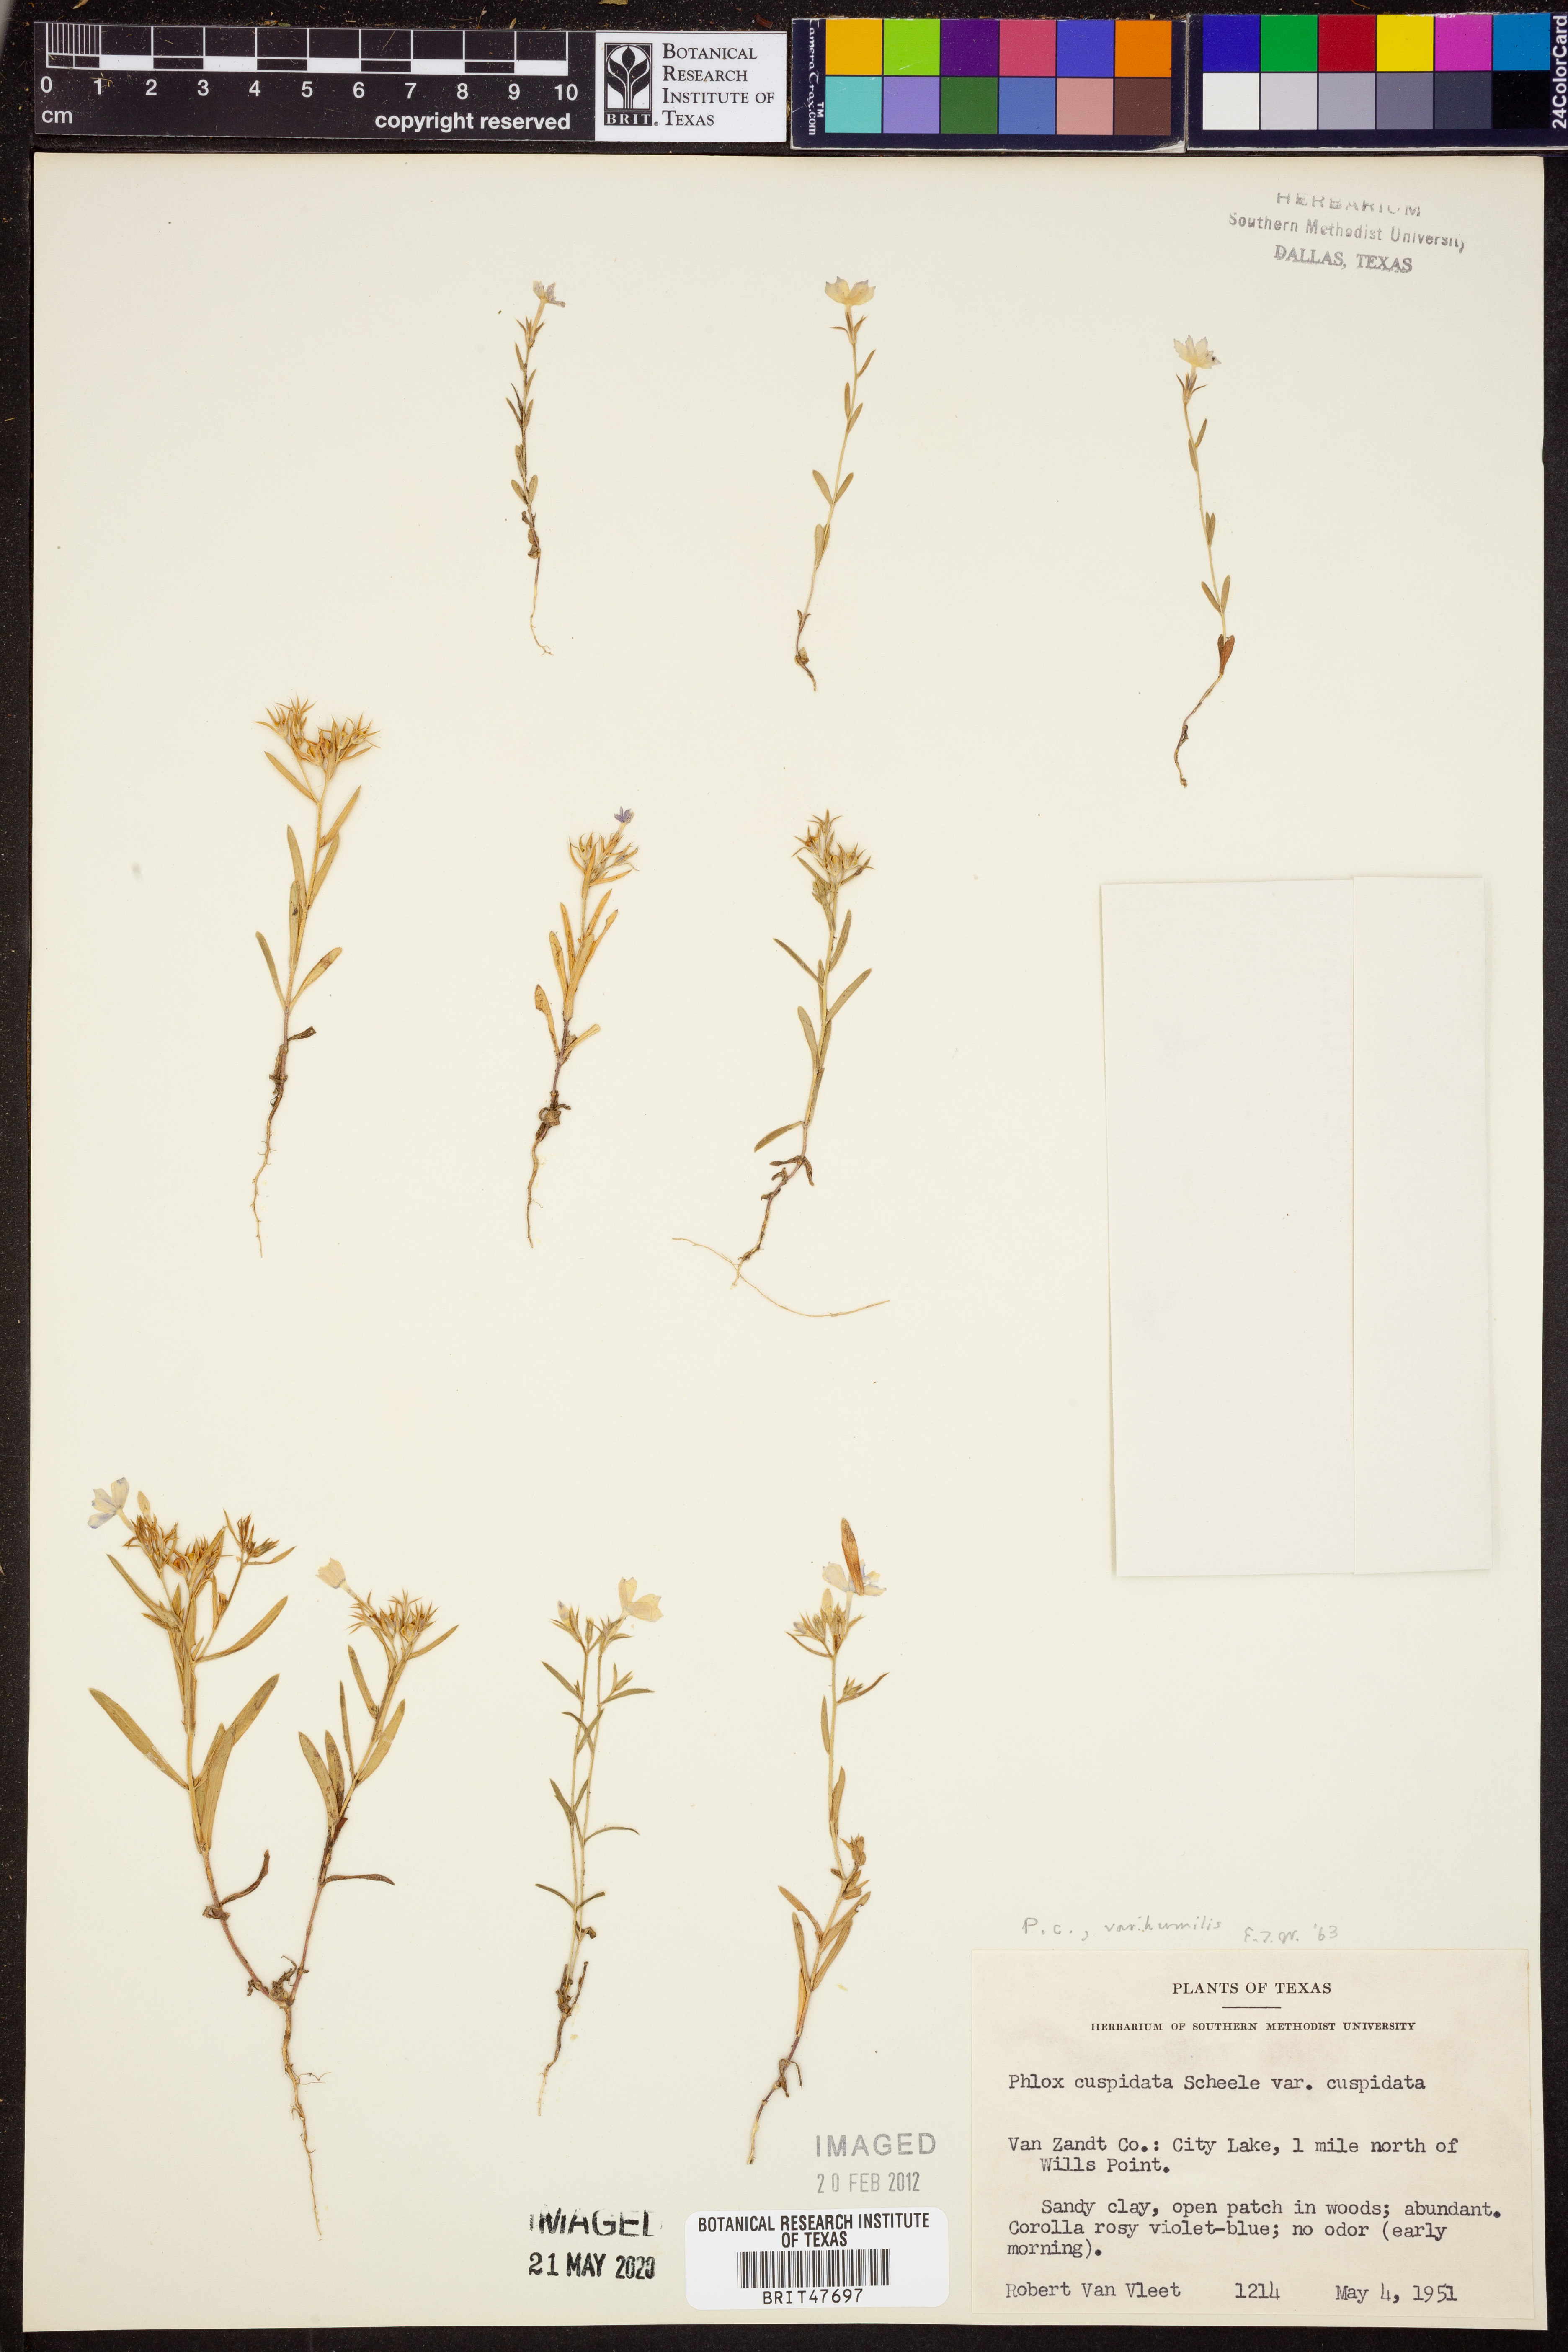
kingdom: Plantae
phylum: Tracheophyta
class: Magnoliopsida
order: Ericales
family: Polemoniaceae
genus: Phlox
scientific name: Phlox cuspidata
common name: Pointed phlox
